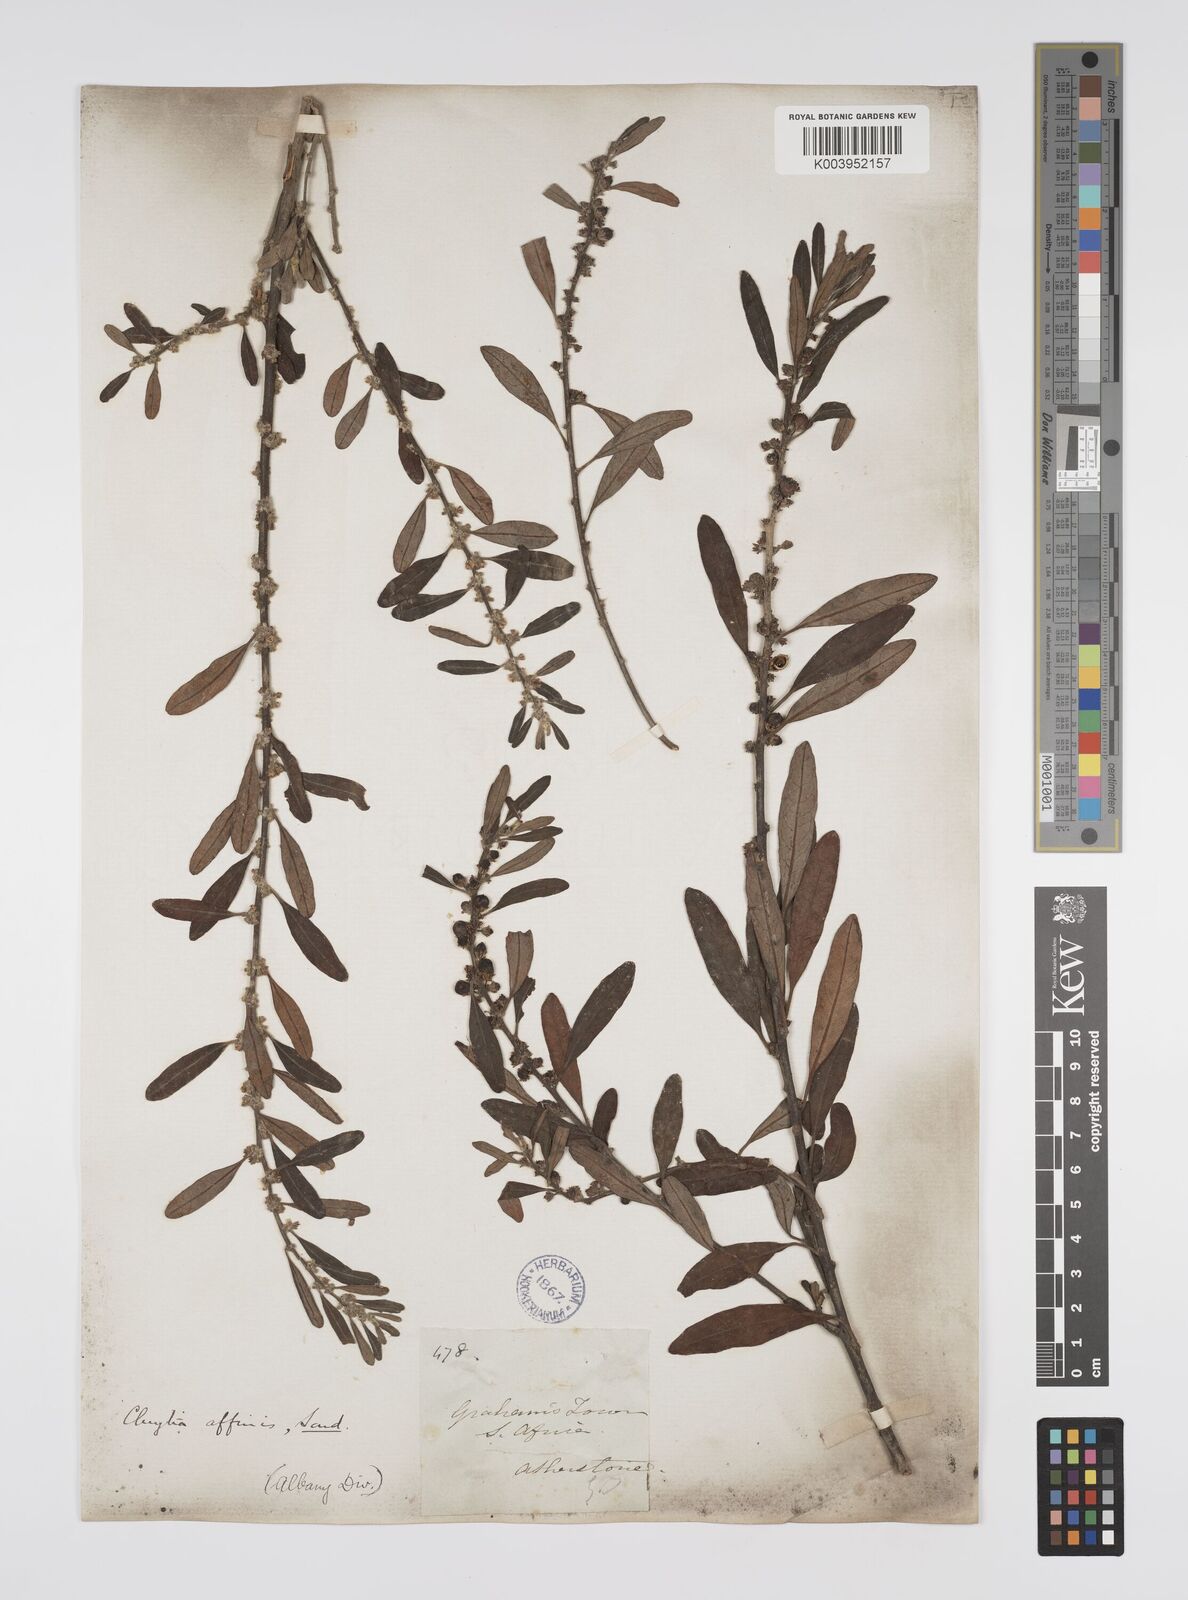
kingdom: Plantae
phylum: Tracheophyta
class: Magnoliopsida
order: Malpighiales
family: Peraceae
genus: Clutia
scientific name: Clutia affinis
